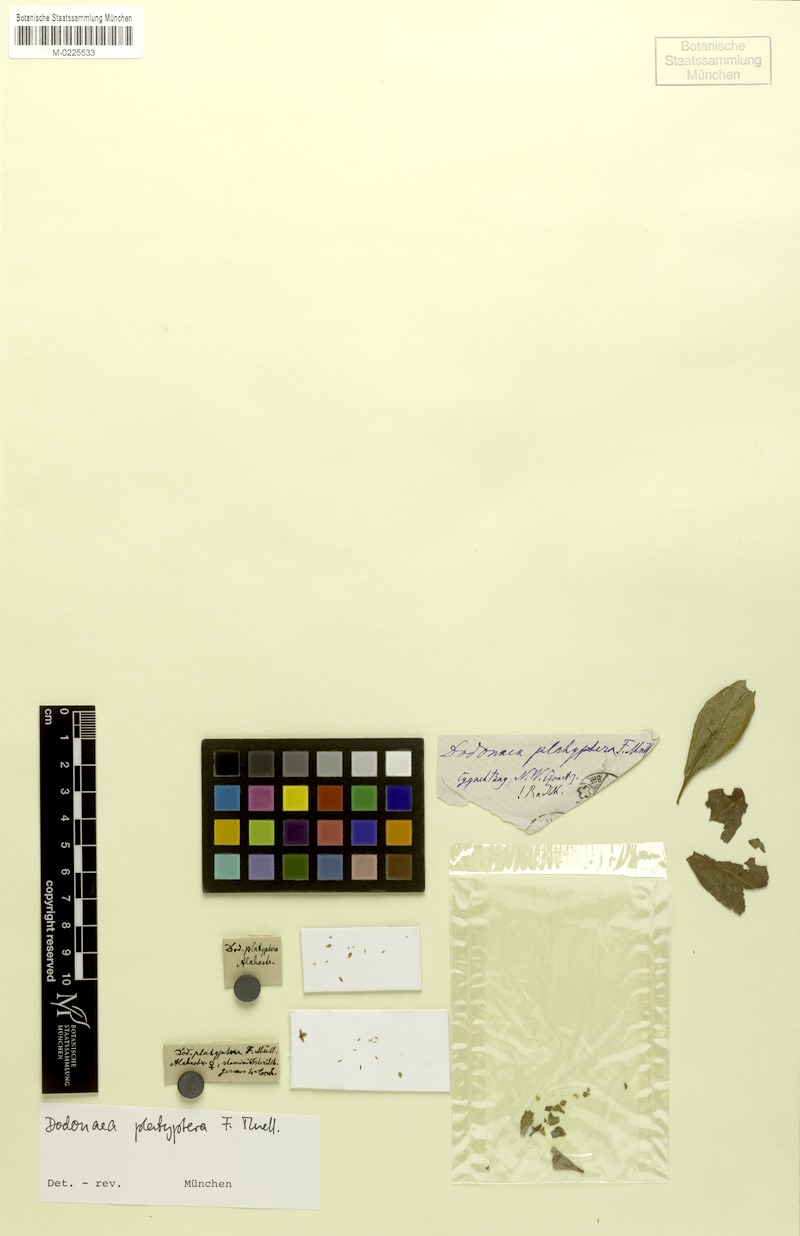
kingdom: Plantae
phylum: Tracheophyta
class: Magnoliopsida
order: Sapindales
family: Sapindaceae
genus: Dodonaea
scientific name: Dodonaea platyptera
